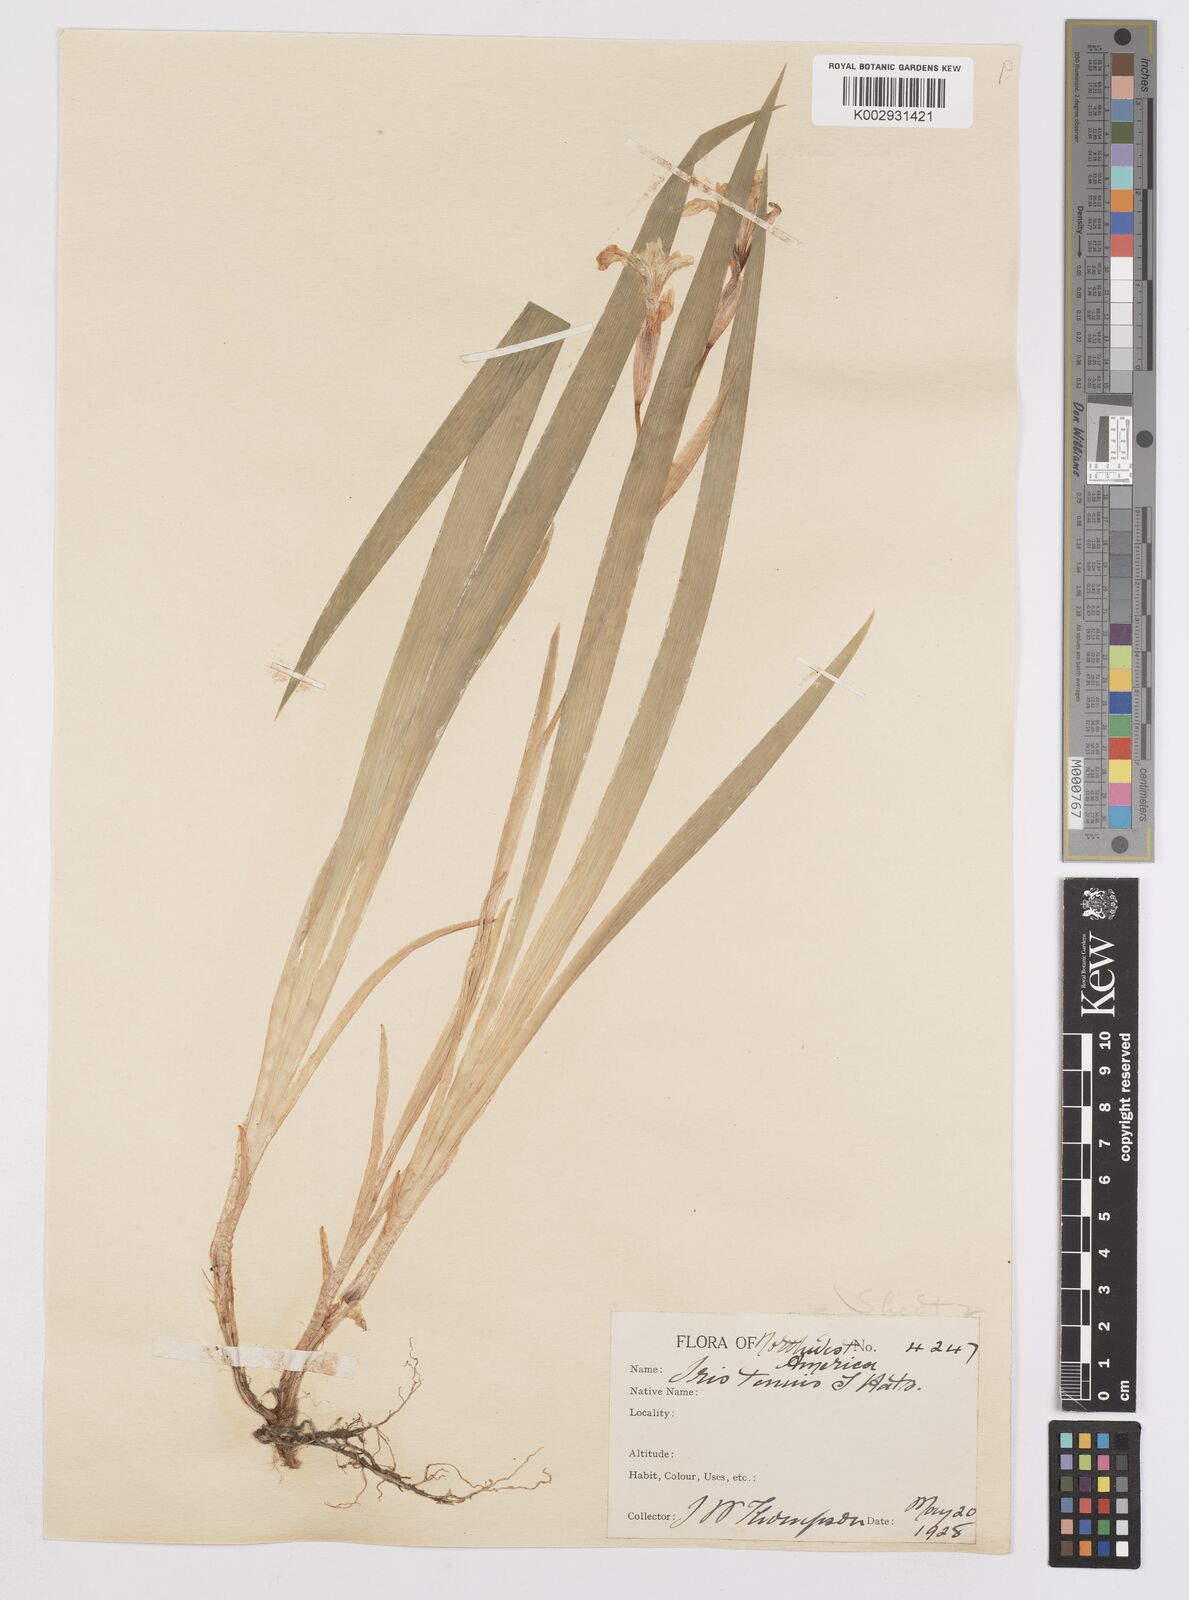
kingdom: Plantae
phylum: Tracheophyta
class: Liliopsida
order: Asparagales
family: Iridaceae
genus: Iris
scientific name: Iris tenuis
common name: Clackamas iris
